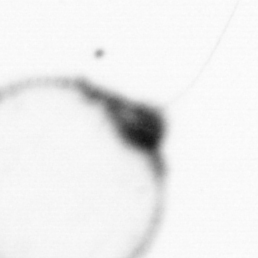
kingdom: Chromista
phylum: Myzozoa
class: Dinophyceae
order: Noctilucales
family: Noctilucaceae
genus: Noctiluca
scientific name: Noctiluca scintillans
